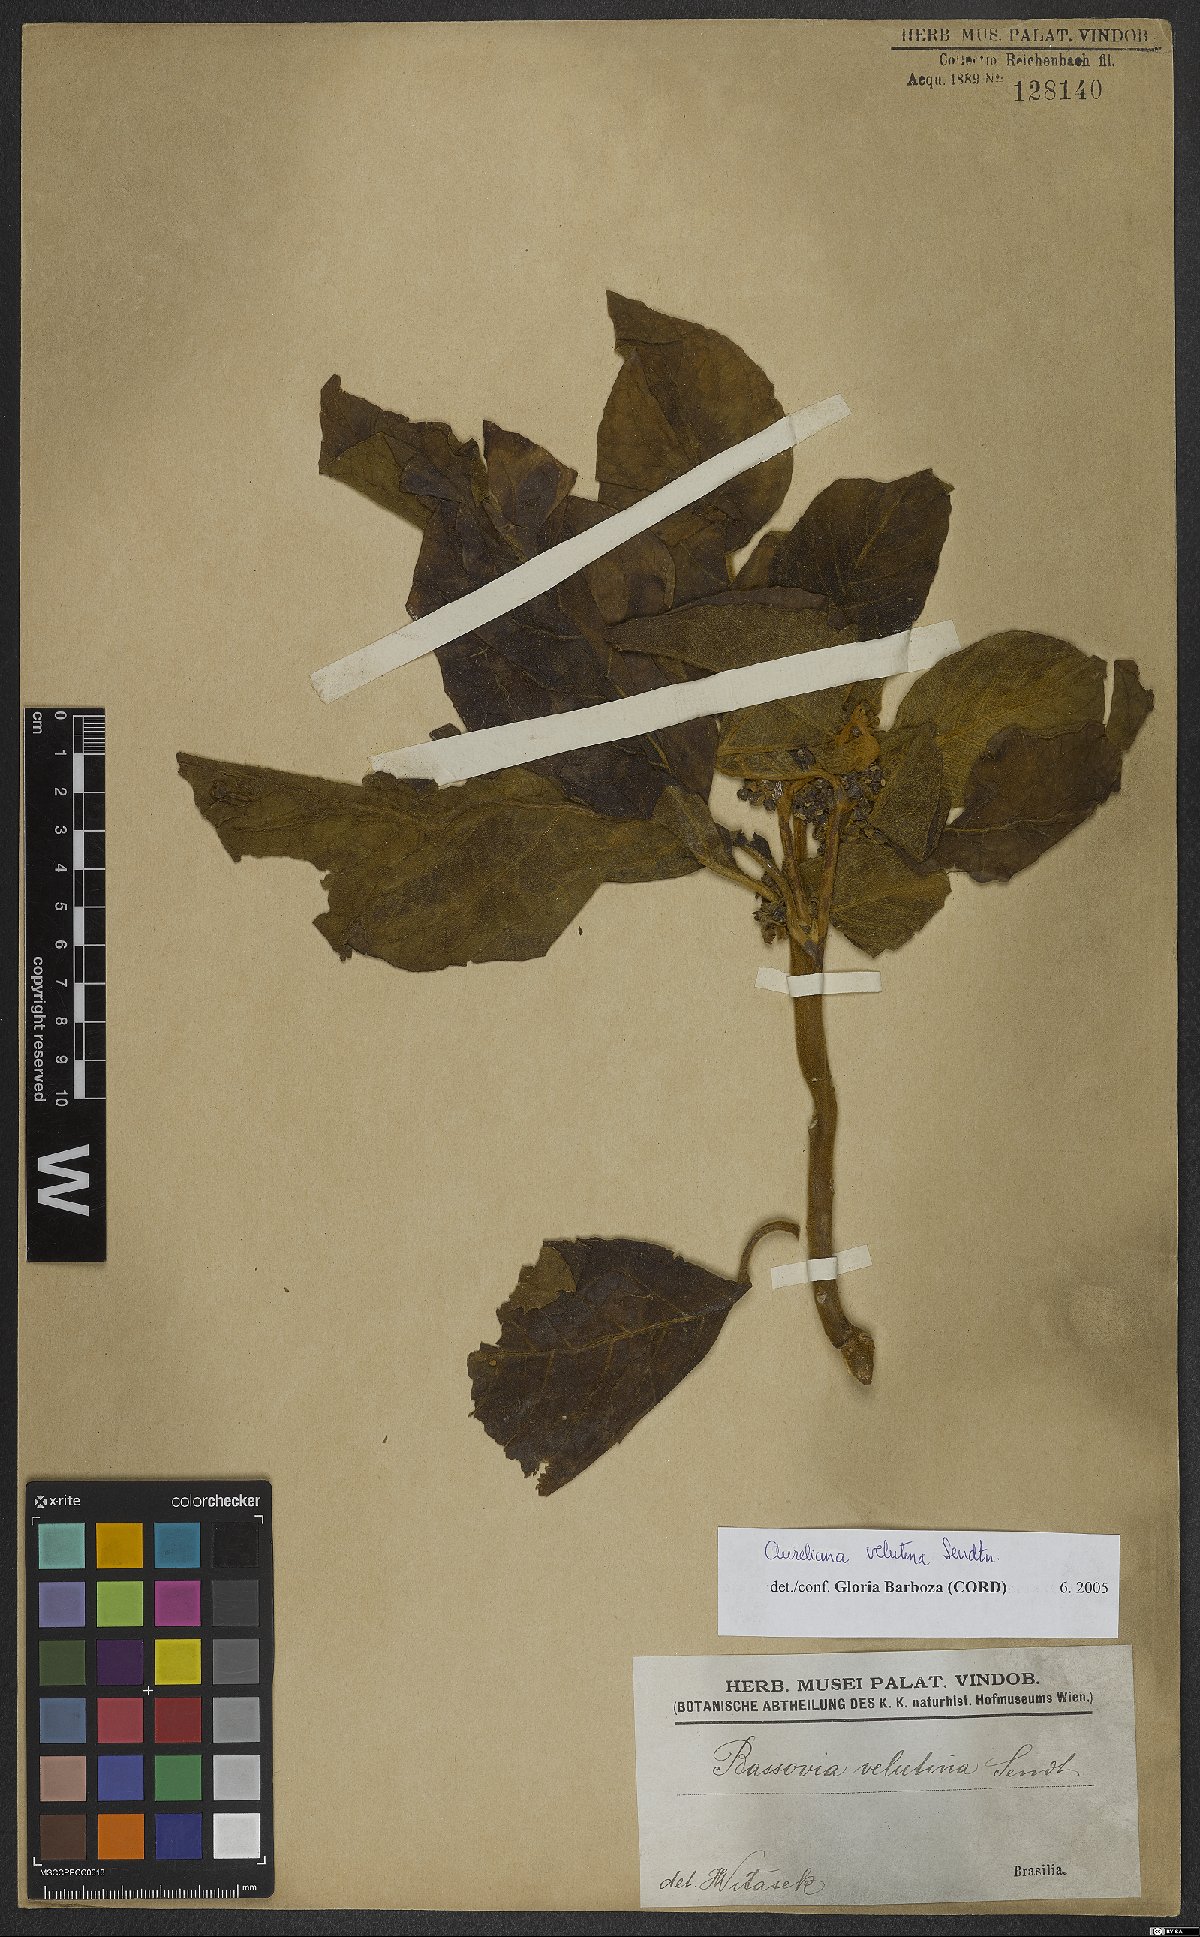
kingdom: Plantae
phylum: Tracheophyta
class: Magnoliopsida
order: Solanales
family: Solanaceae
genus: Athenaea
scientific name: Athenaea velutina
